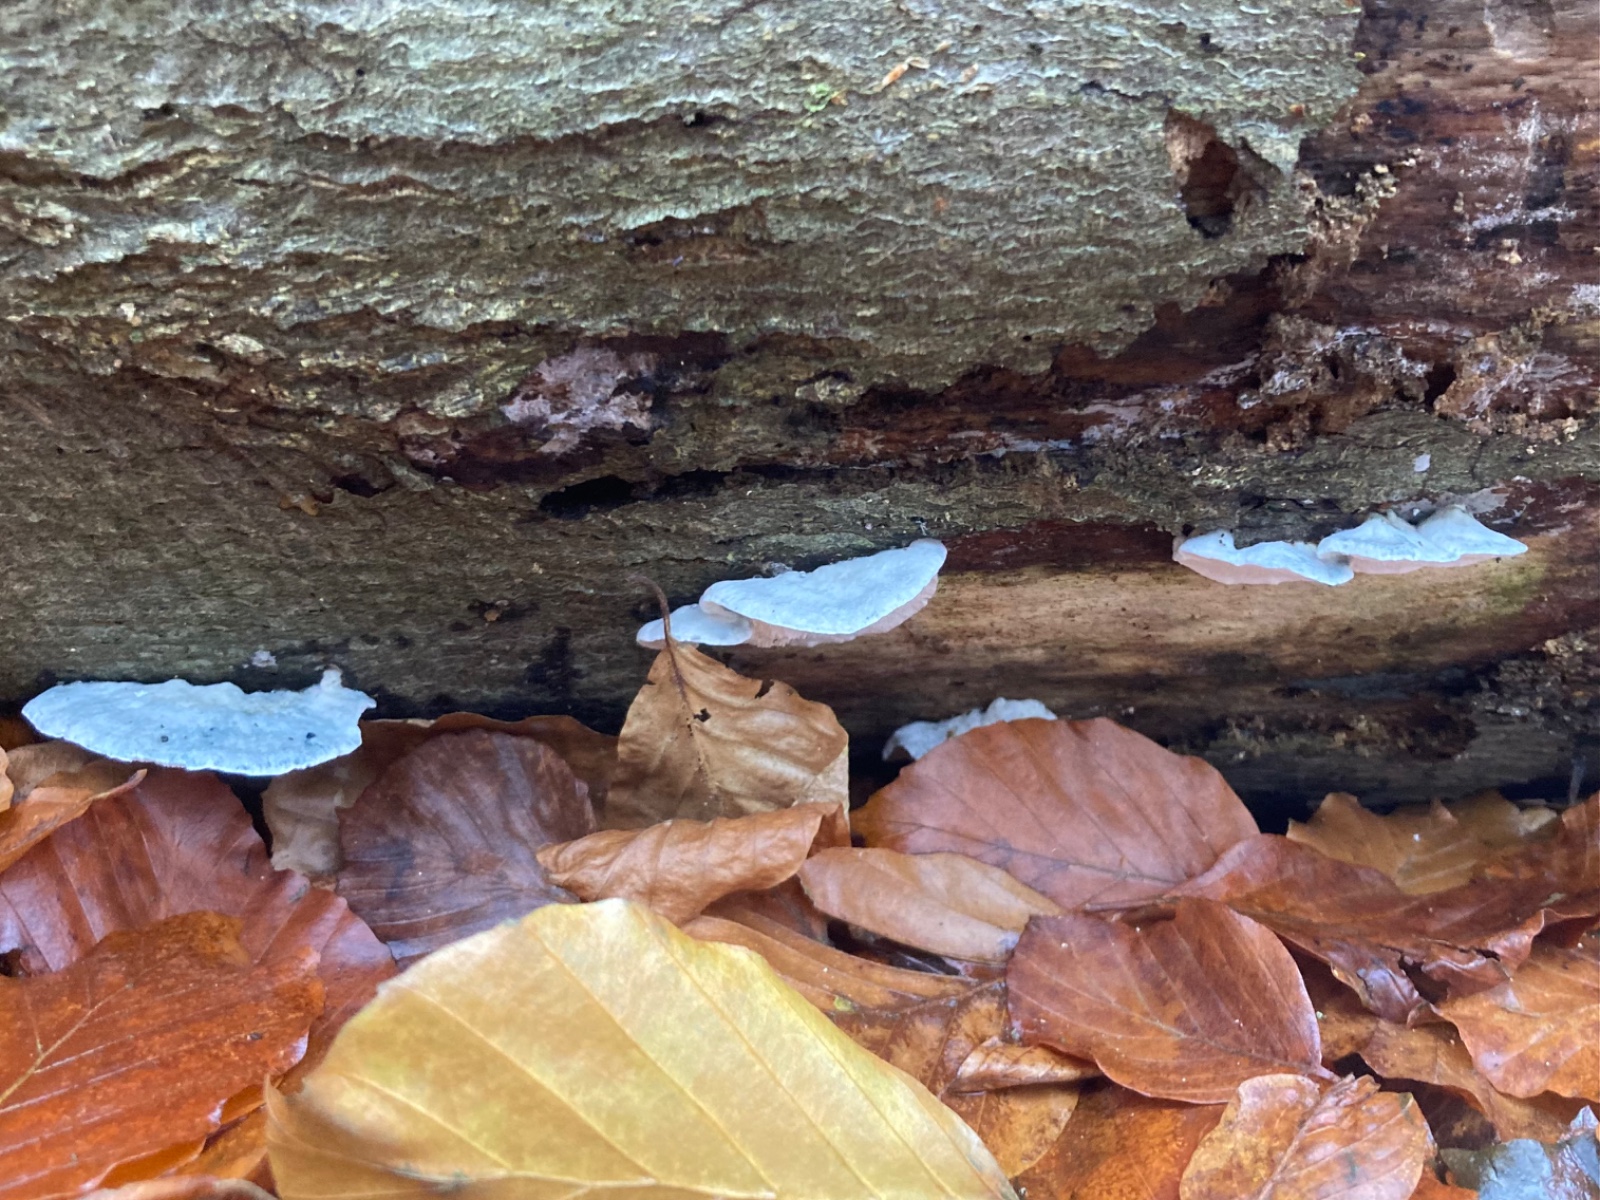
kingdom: Fungi
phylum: Basidiomycota
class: Agaricomycetes
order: Polyporales
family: Polyporaceae
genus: Cyanosporus
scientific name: Cyanosporus alni
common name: blegblå kødporesvamp
